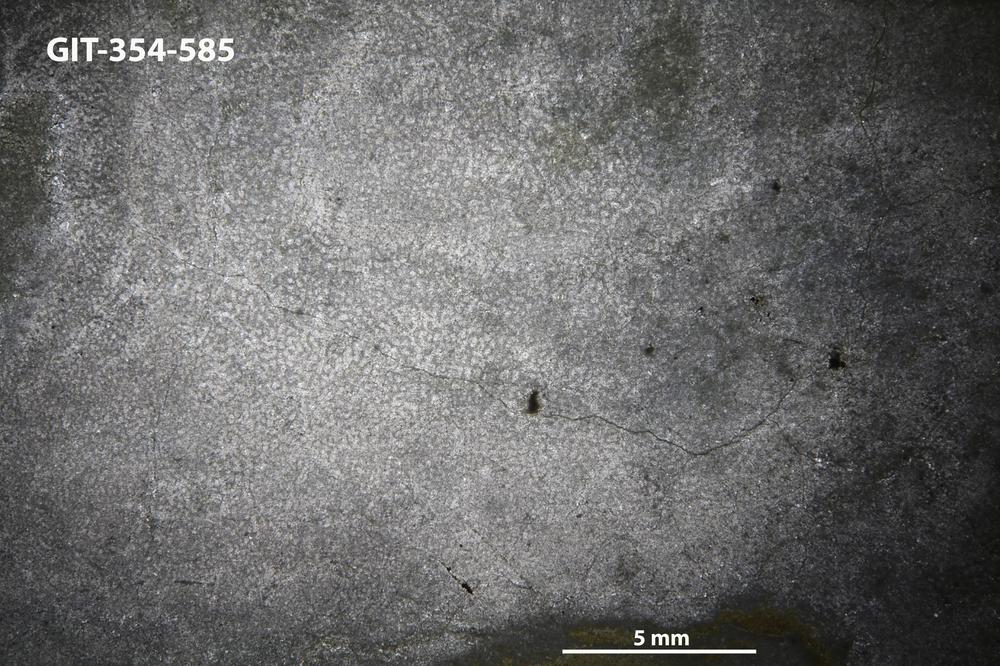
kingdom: Animalia
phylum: Porifera
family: Pseudolabechiidae
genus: Vikingia
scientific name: Vikingia
